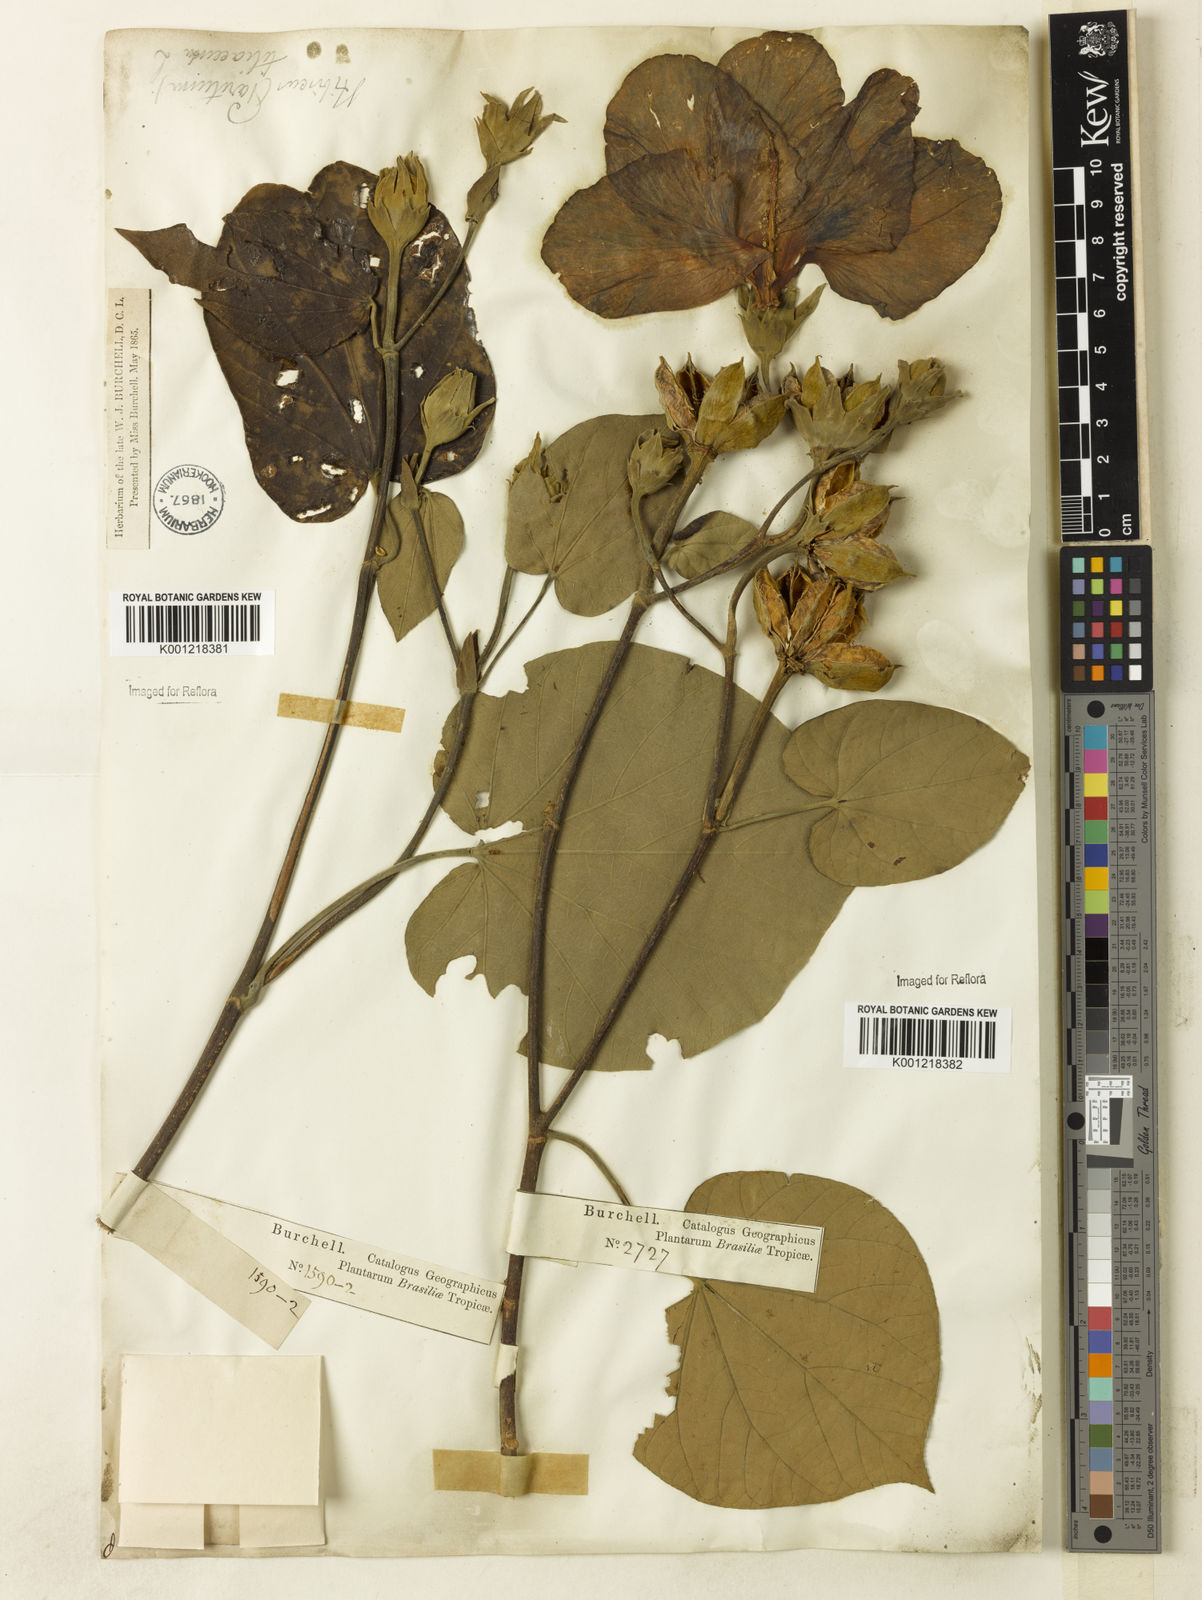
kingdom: Plantae
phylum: Tracheophyta
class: Magnoliopsida
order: Malvales
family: Malvaceae
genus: Hibiscus
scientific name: Hibiscus
